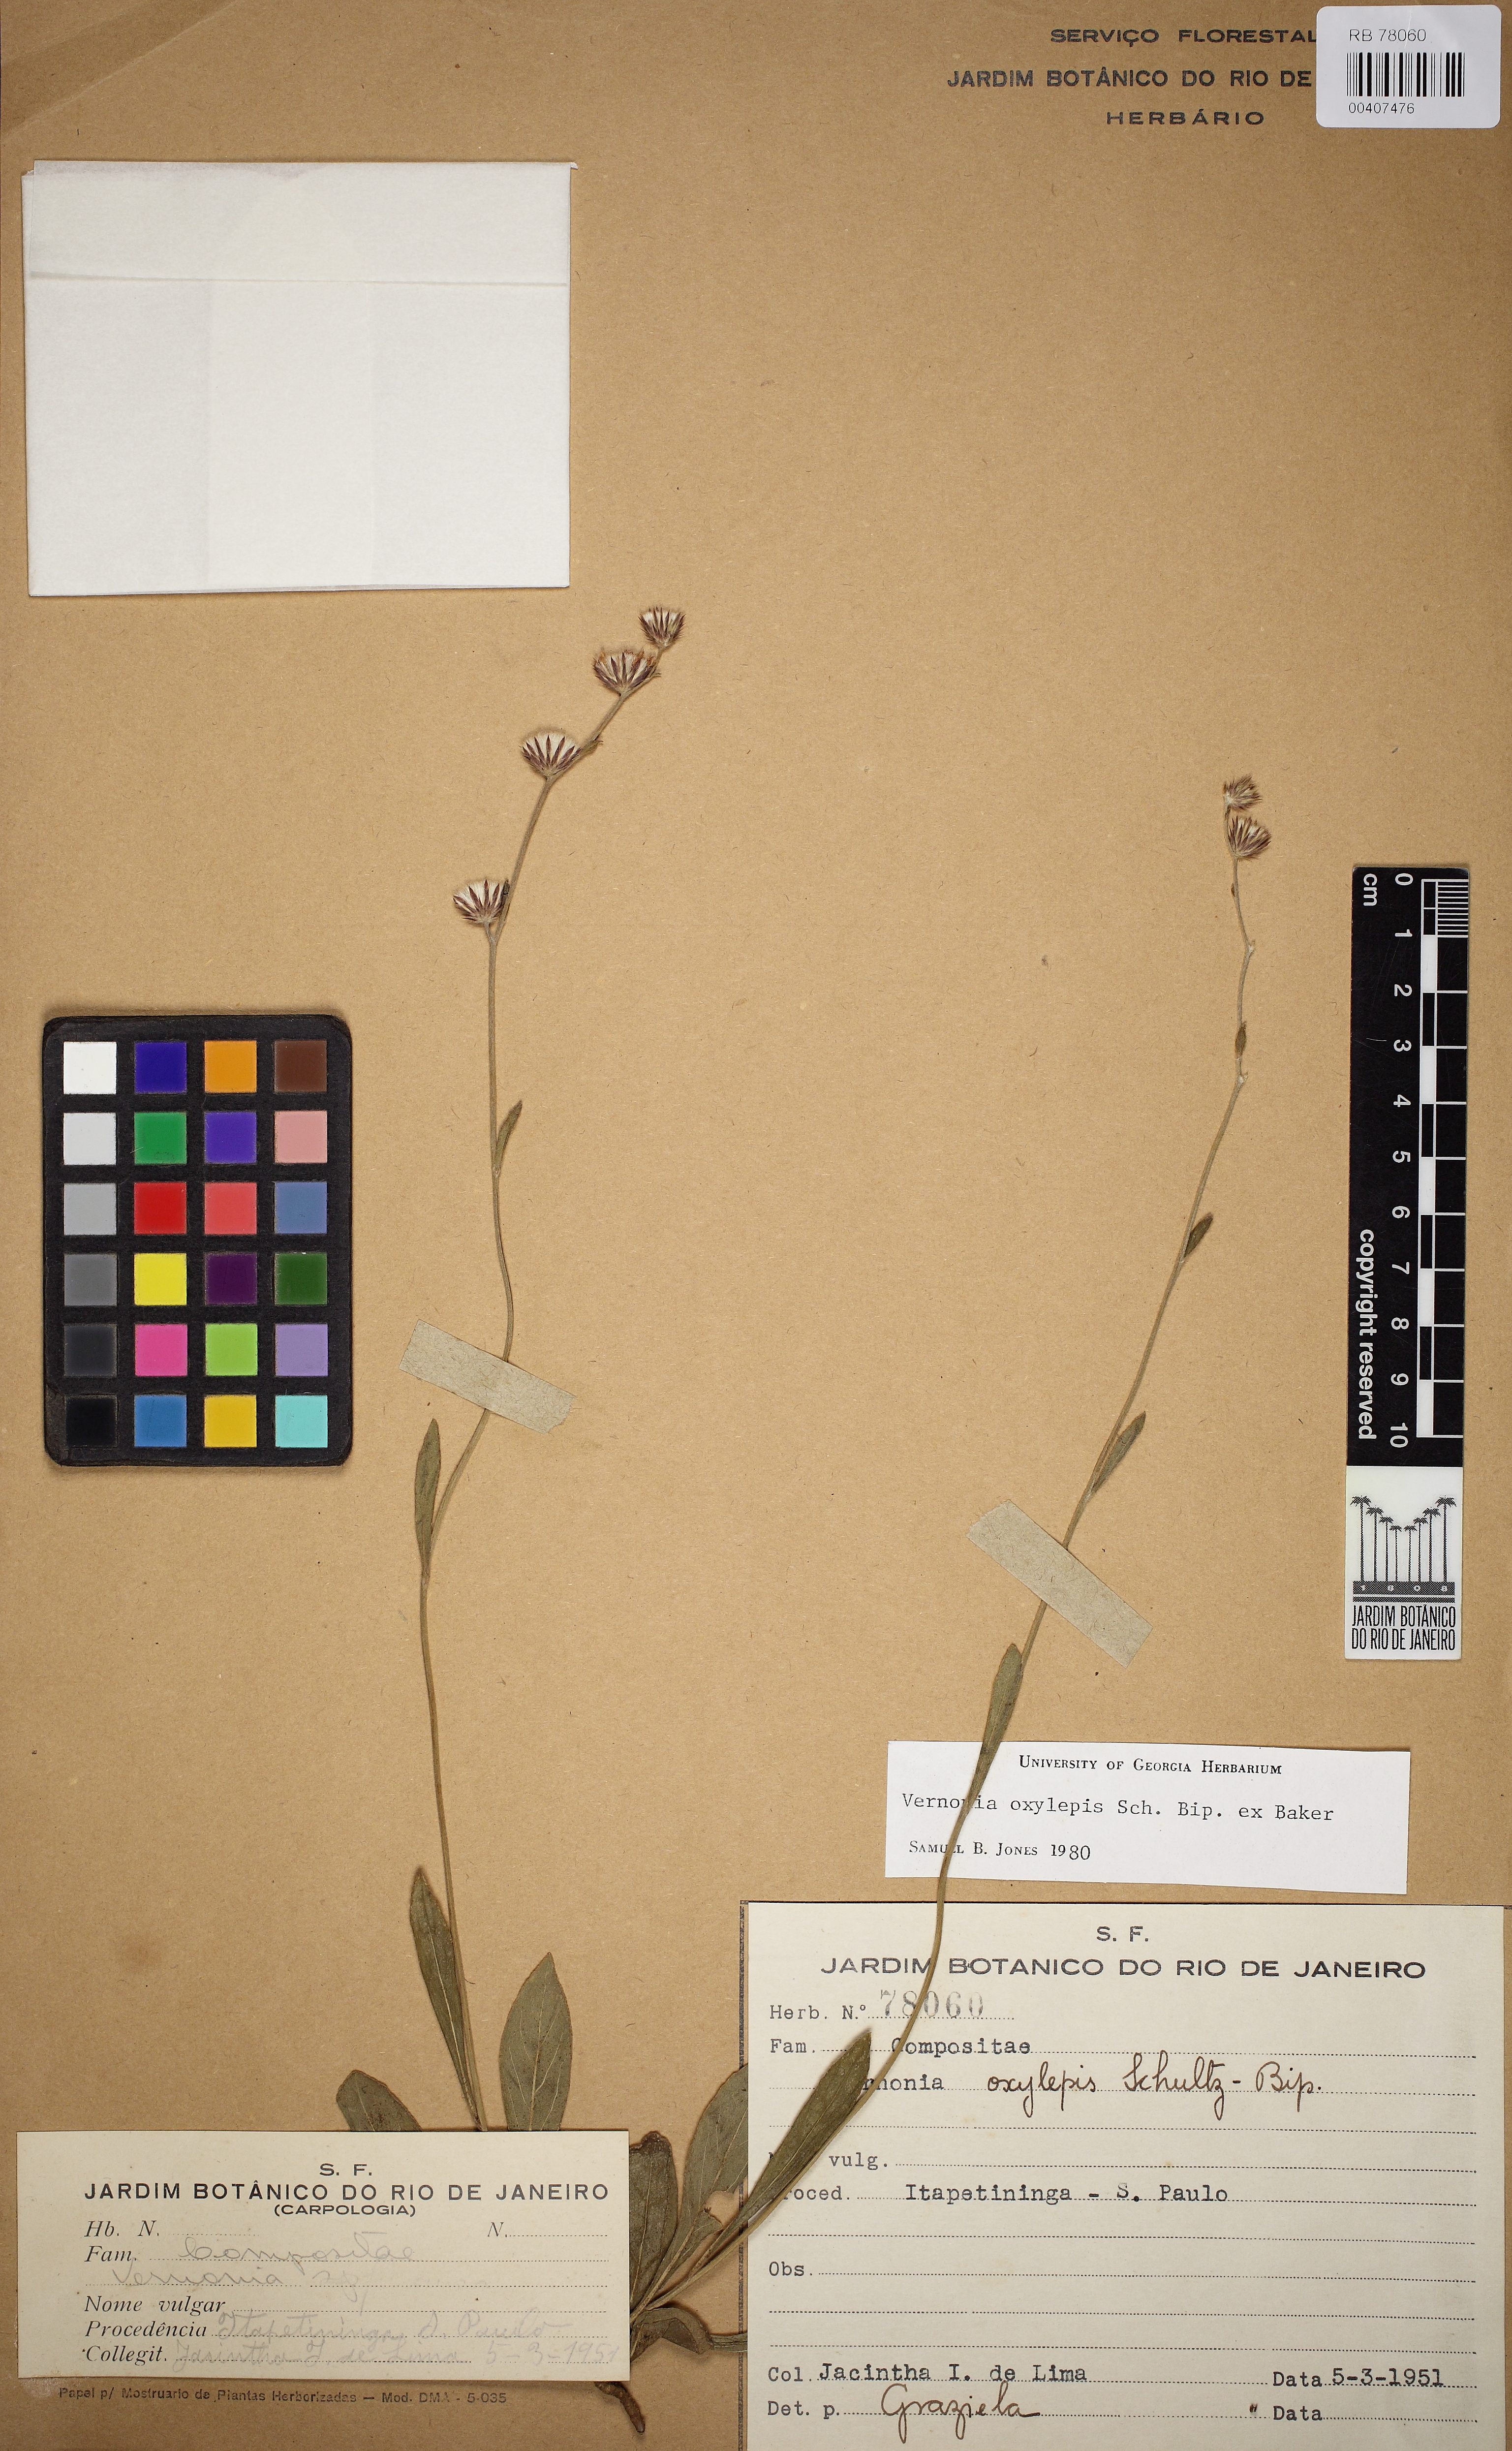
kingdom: Plantae
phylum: Tracheophyta
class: Magnoliopsida
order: Asterales
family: Asteraceae
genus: Lepidaploa
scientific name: Lepidaploa psilostachya
